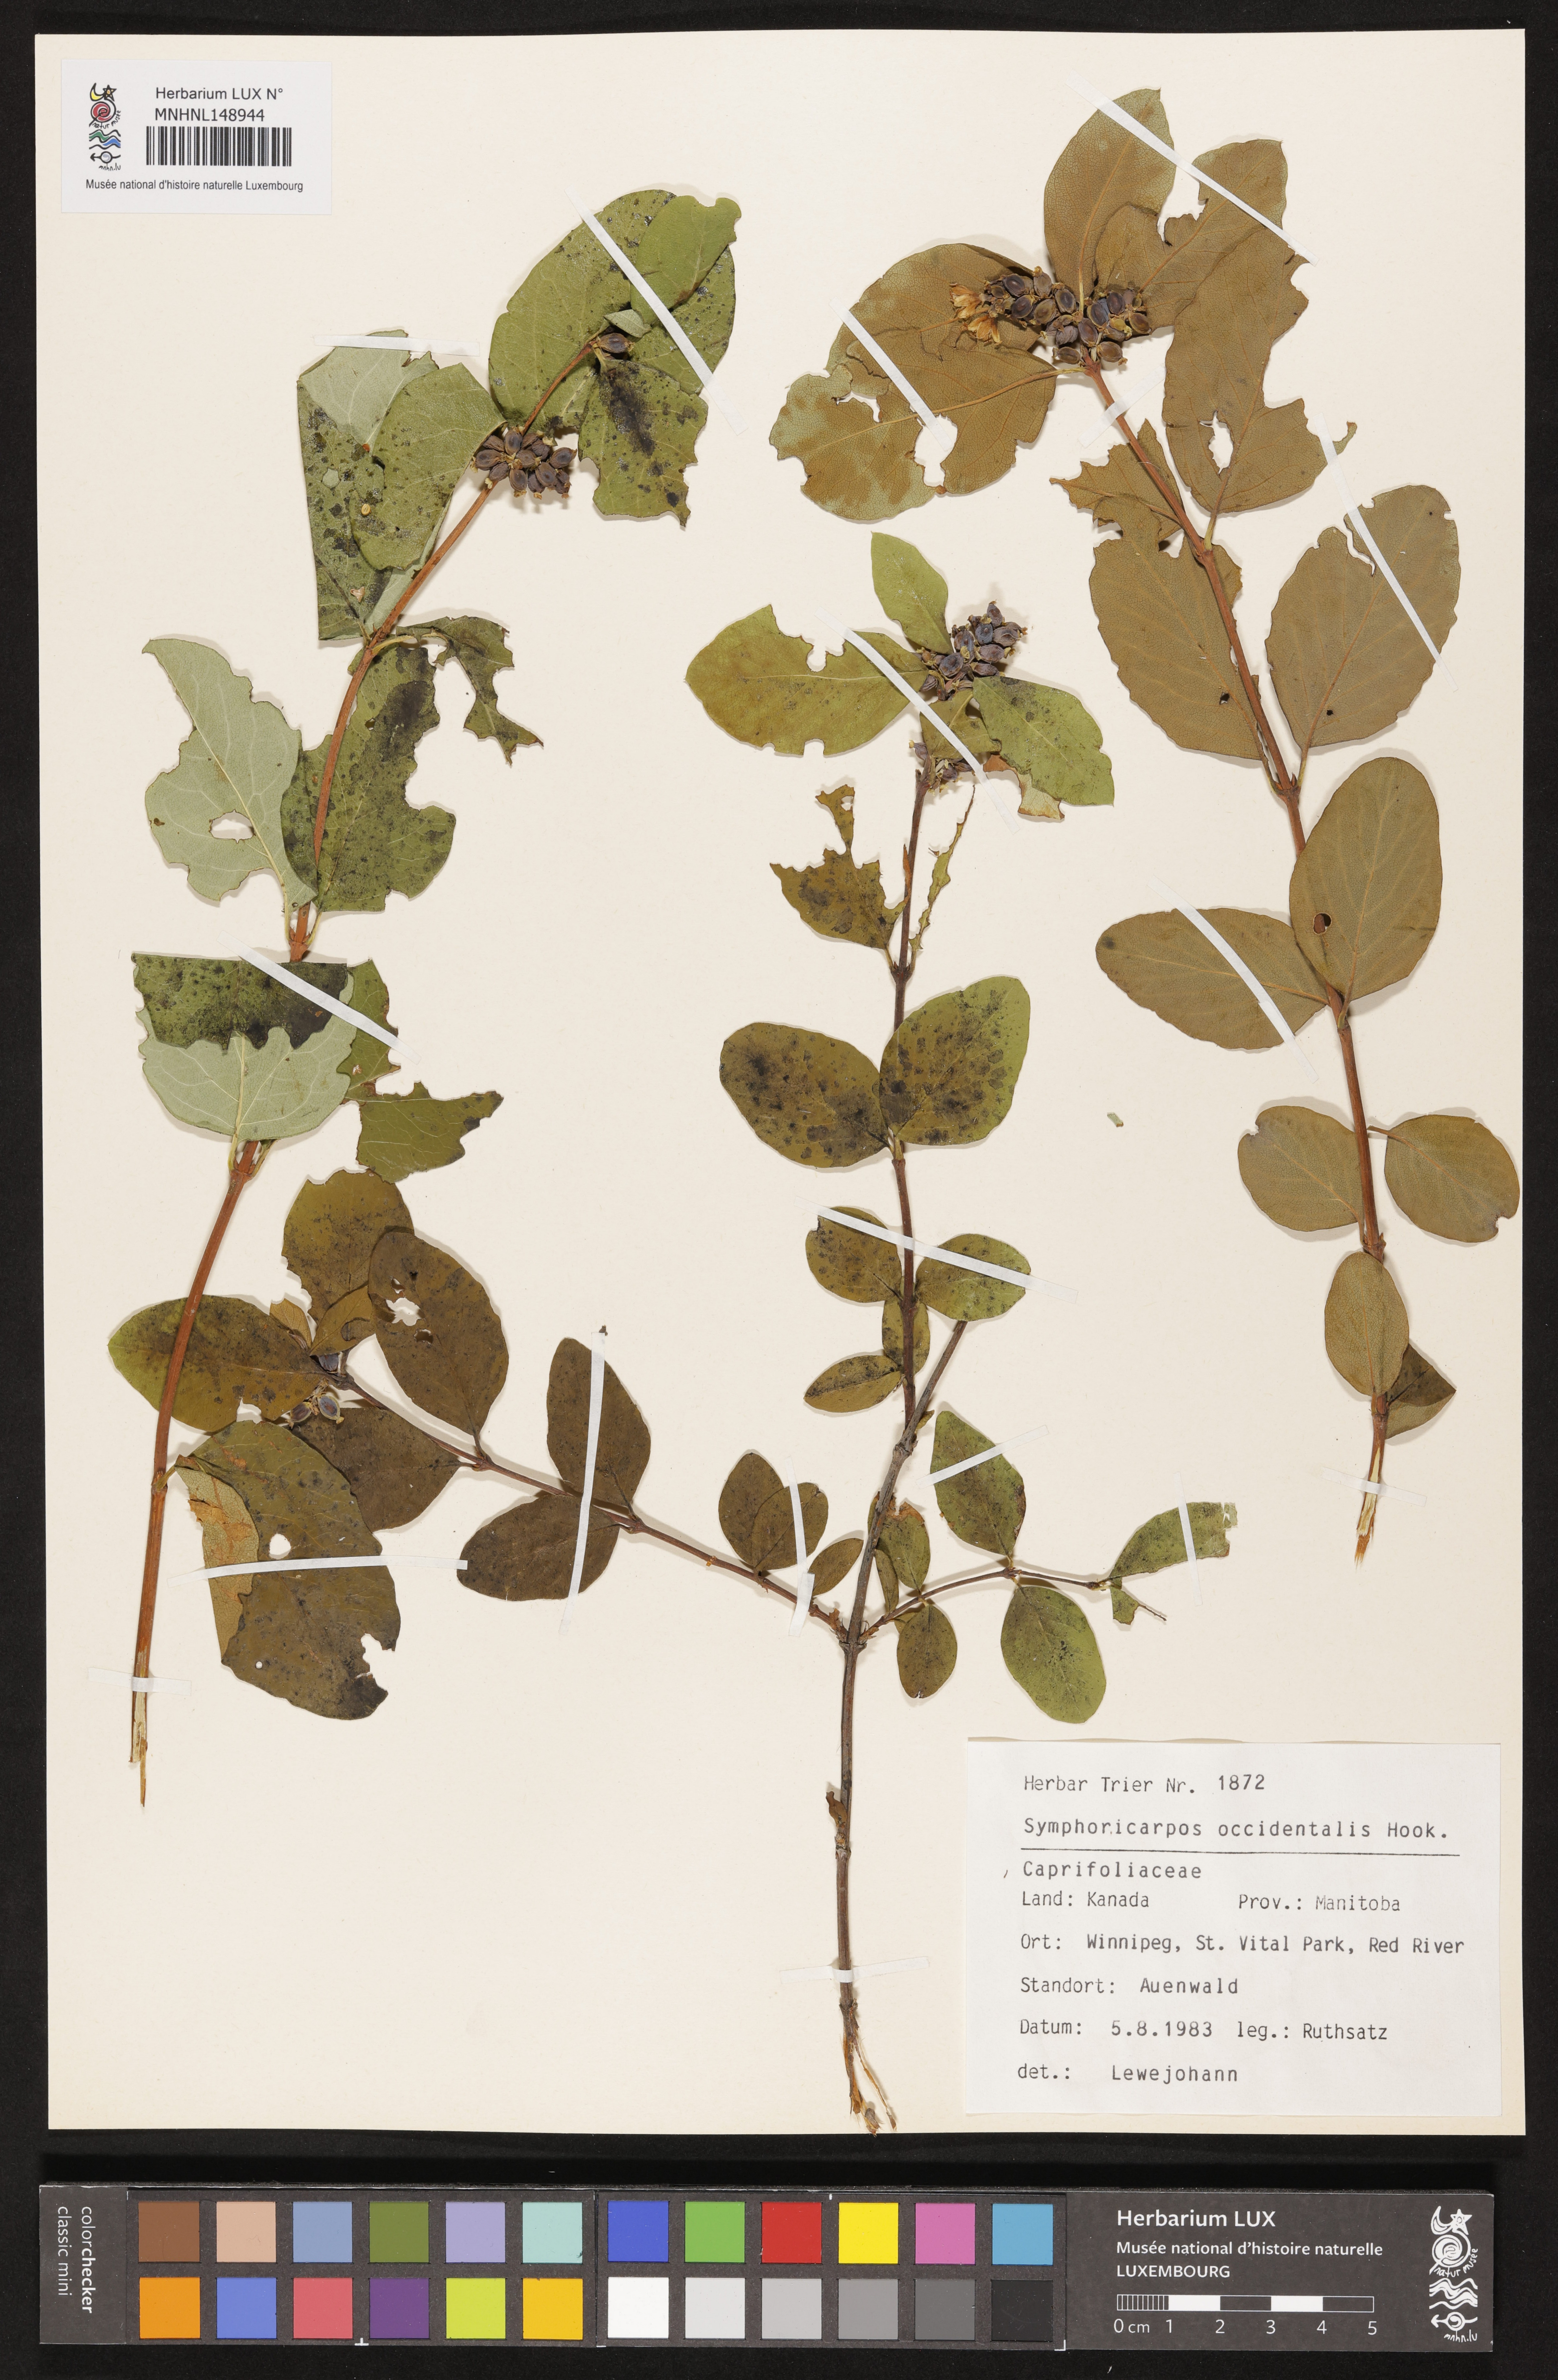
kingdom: Plantae
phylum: Tracheophyta
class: Magnoliopsida
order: Dipsacales
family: Caprifoliaceae
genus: Symphoricarpos
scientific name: Symphoricarpos occidentalis
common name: Wolfberry
